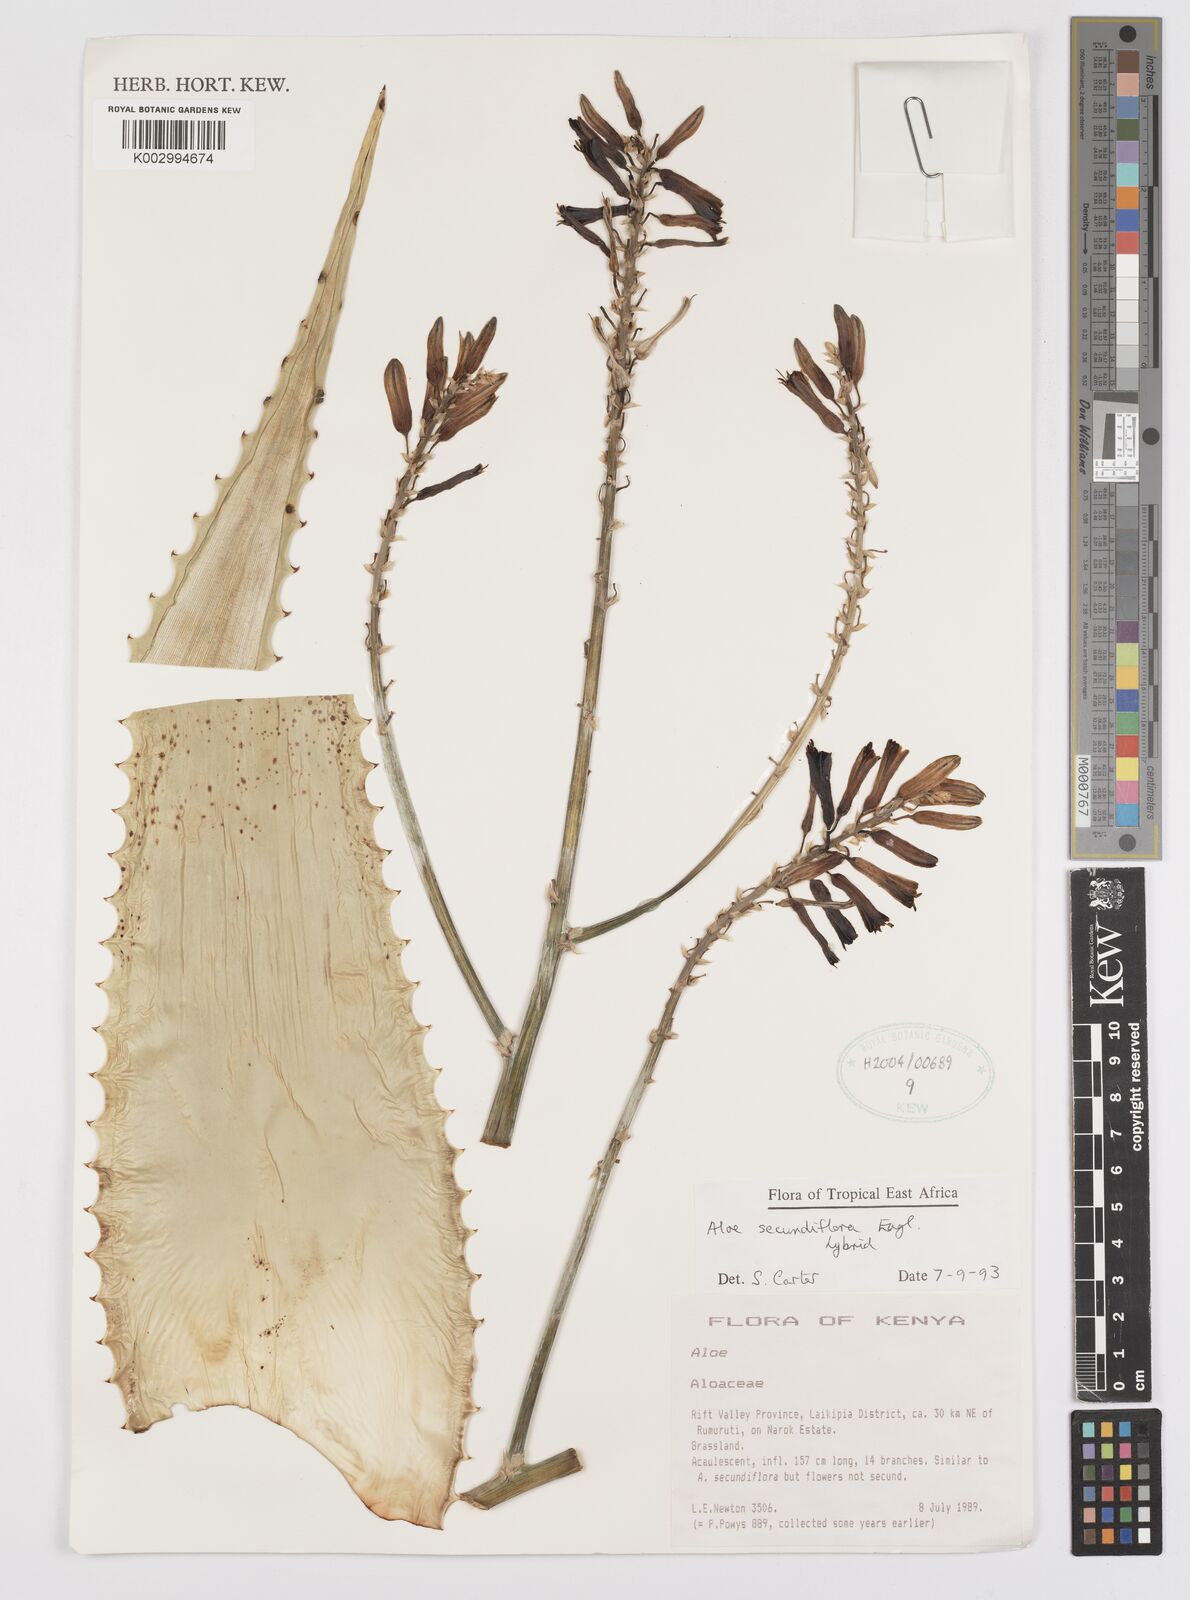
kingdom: Plantae
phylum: Tracheophyta
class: Liliopsida
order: Asparagales
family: Asphodelaceae
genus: Aloe
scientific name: Aloe secundiflora
